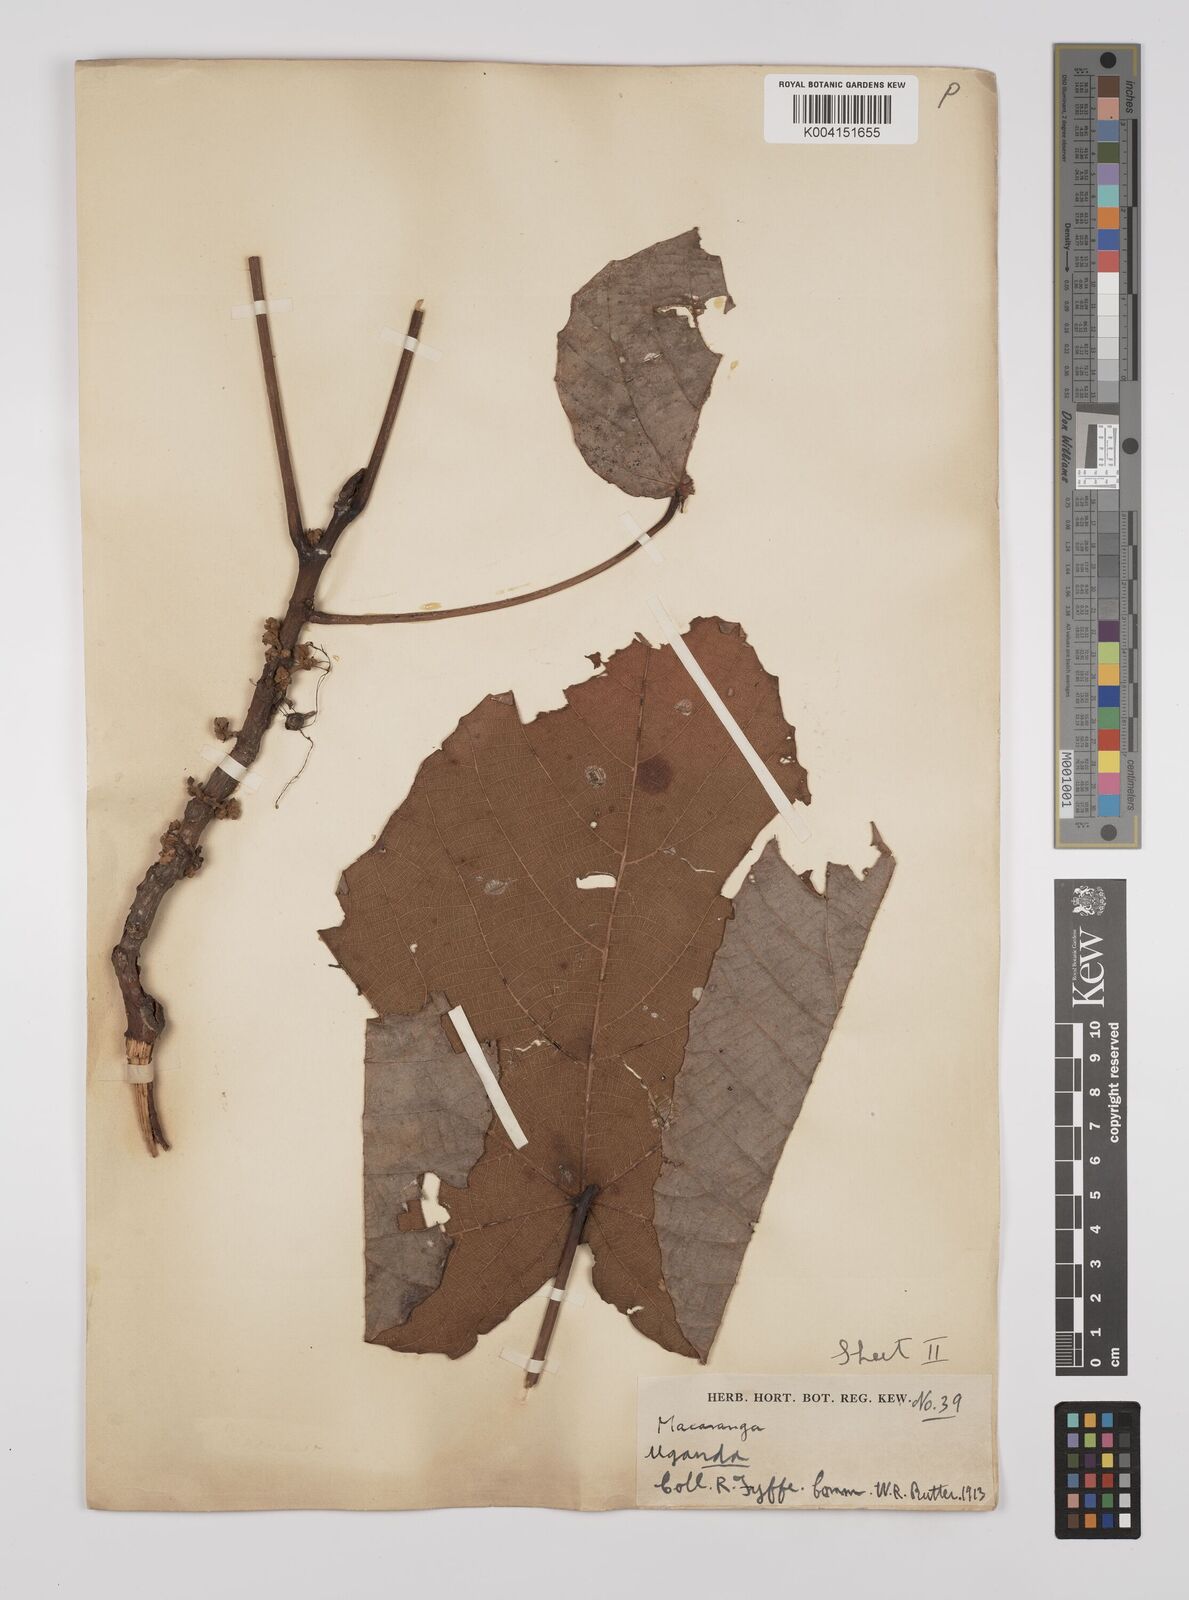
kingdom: Plantae
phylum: Tracheophyta
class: Magnoliopsida
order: Malpighiales
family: Euphorbiaceae
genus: Macaranga
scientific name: Macaranga schweinfurthii
